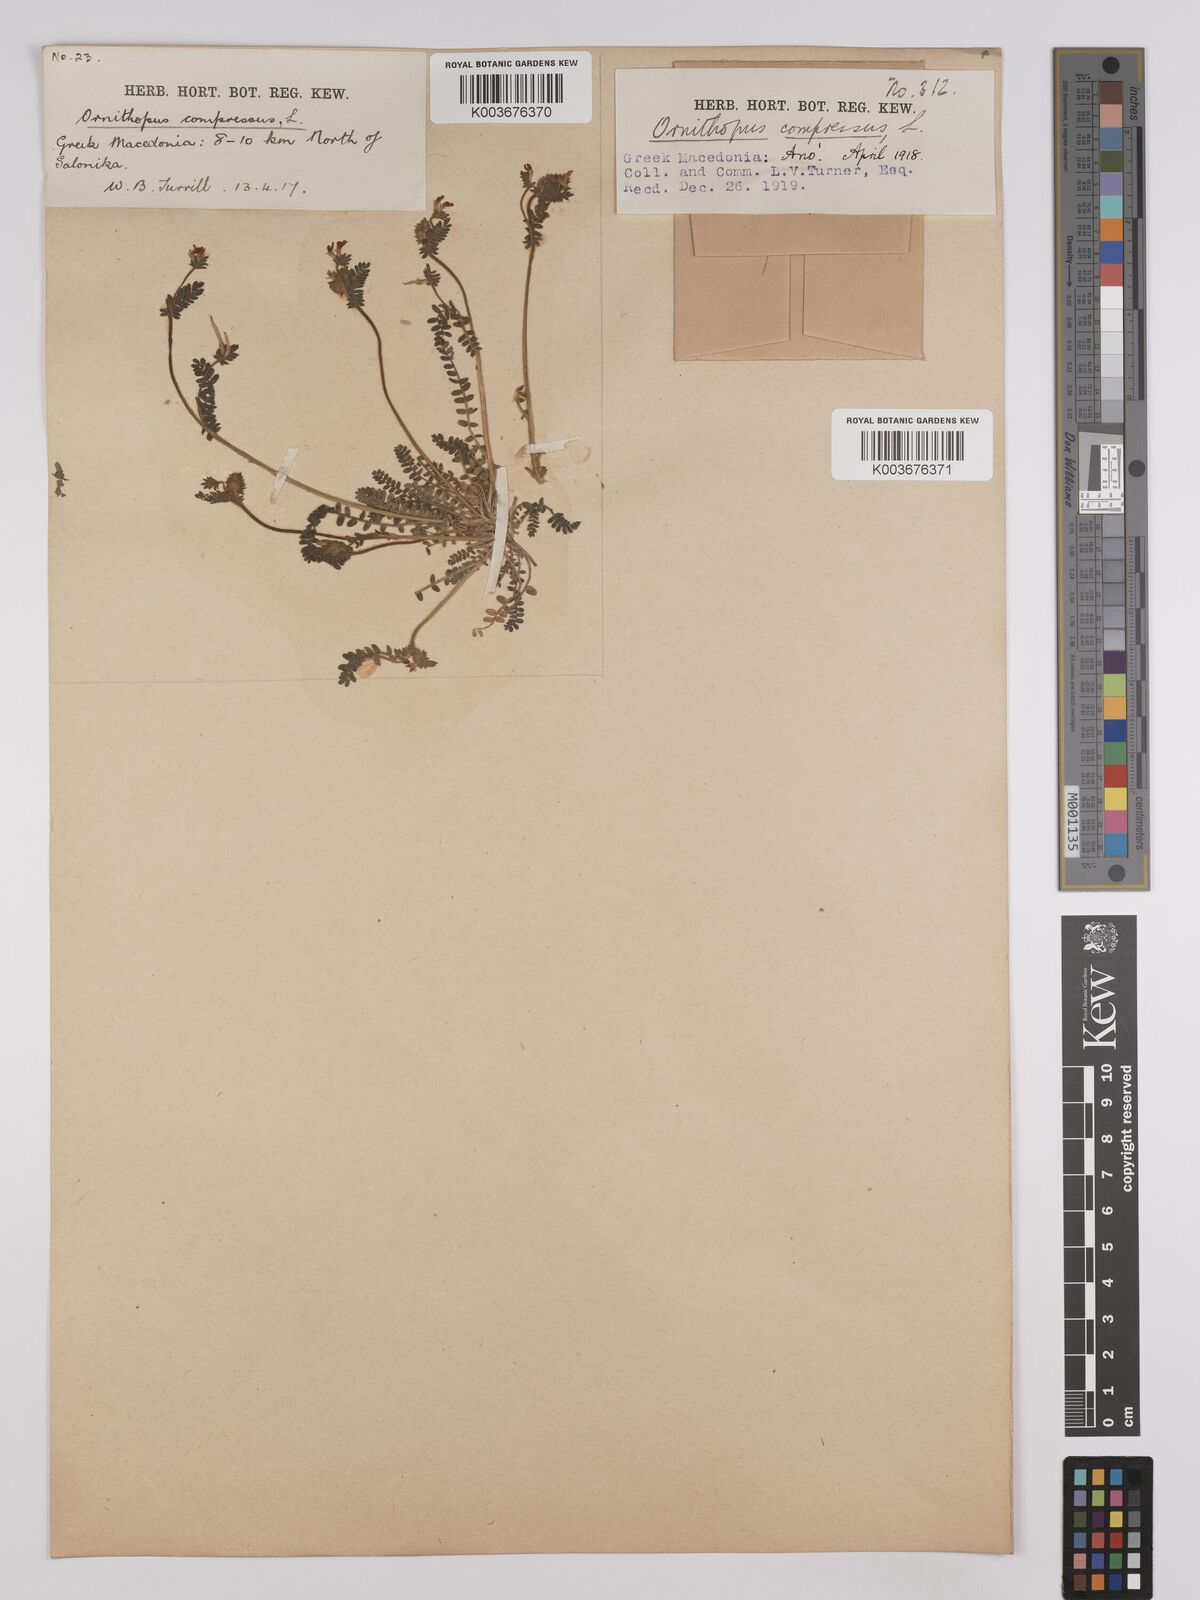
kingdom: Plantae
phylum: Tracheophyta
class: Magnoliopsida
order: Fabales
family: Fabaceae
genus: Ornithopus
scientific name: Ornithopus compressus
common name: Yellow serradella
